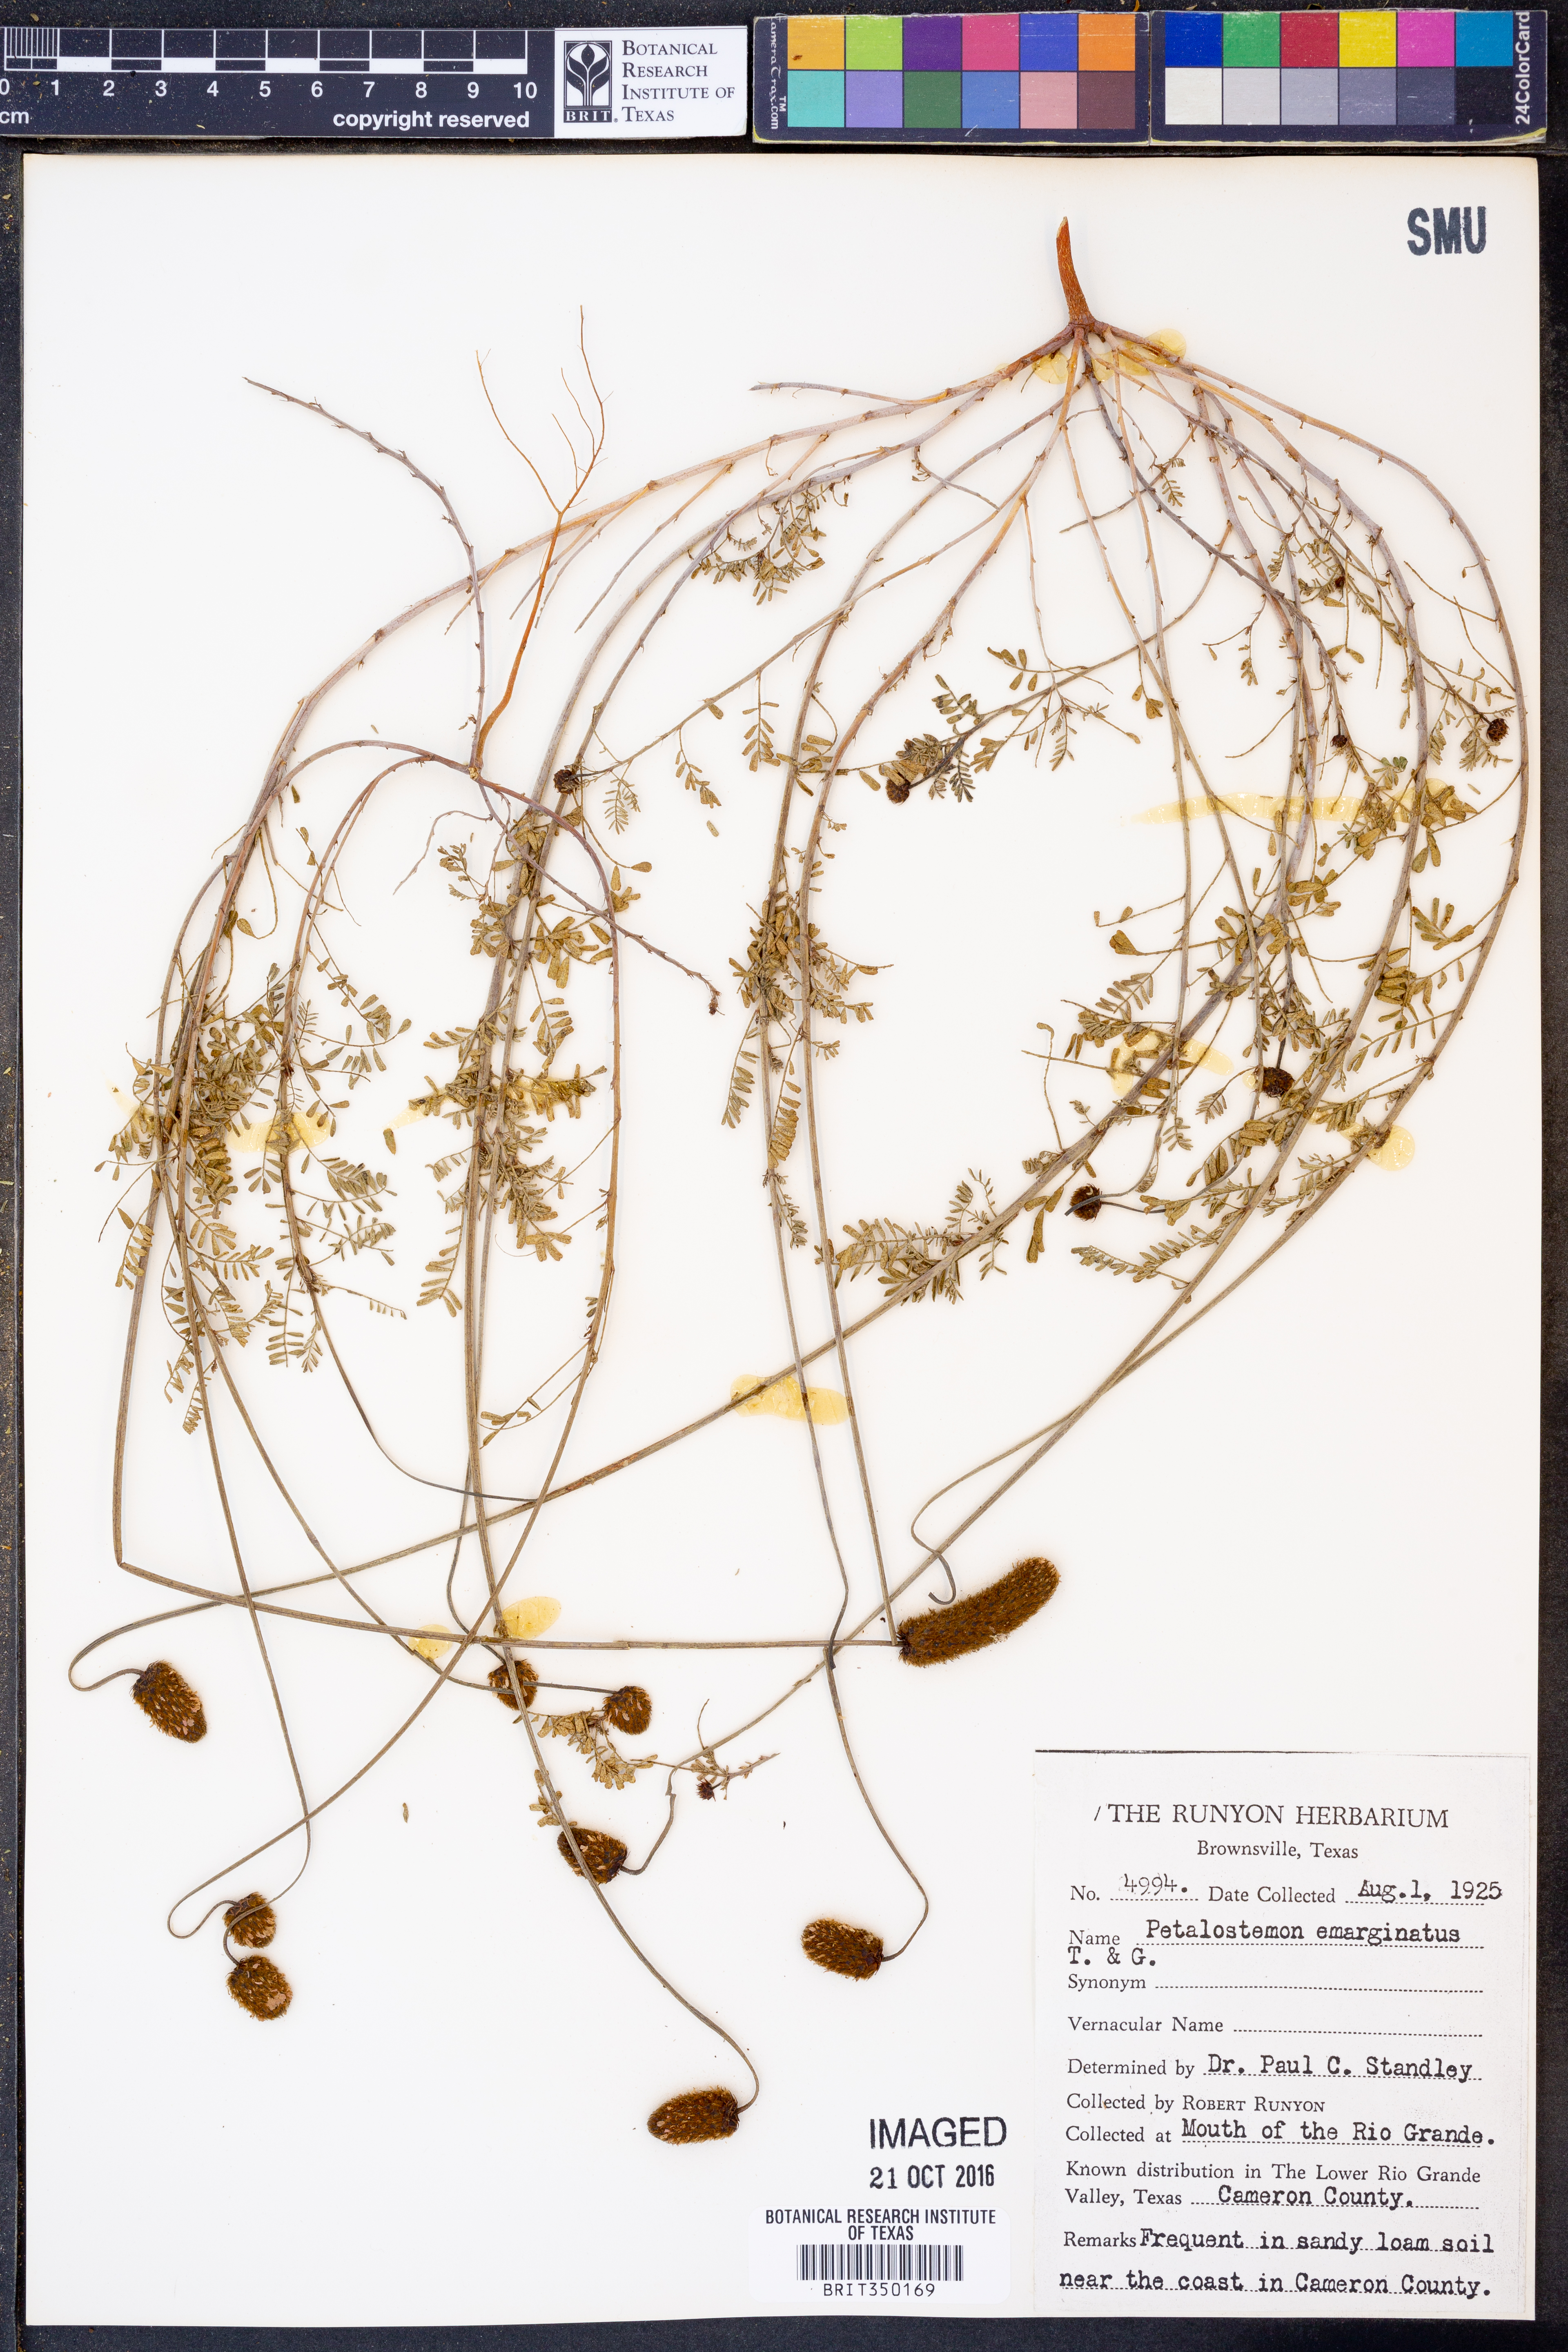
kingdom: Plantae
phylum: Tracheophyta
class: Magnoliopsida
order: Fabales
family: Fabaceae
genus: Dalea
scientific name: Dalea emarginata
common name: Wedgeleaf prairie clover
